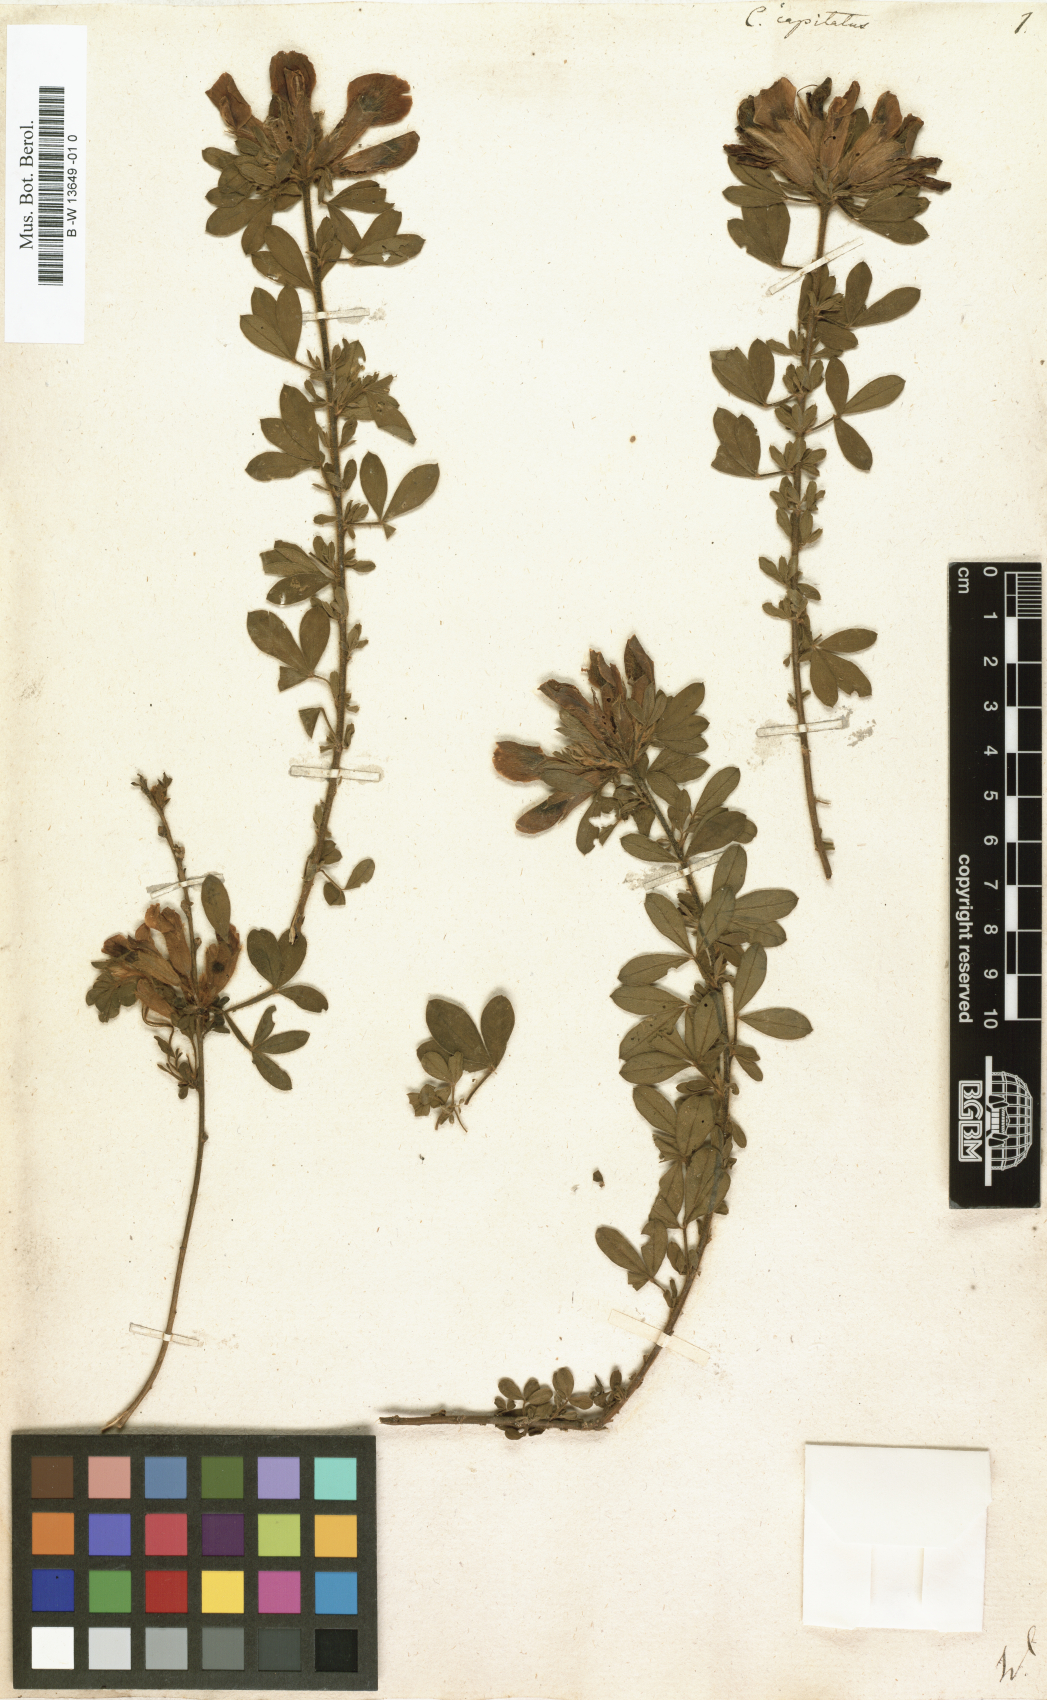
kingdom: Plantae
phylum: Tracheophyta
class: Magnoliopsida
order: Fabales
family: Fabaceae
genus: Chamaecytisus
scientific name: Chamaecytisus hirsutus
